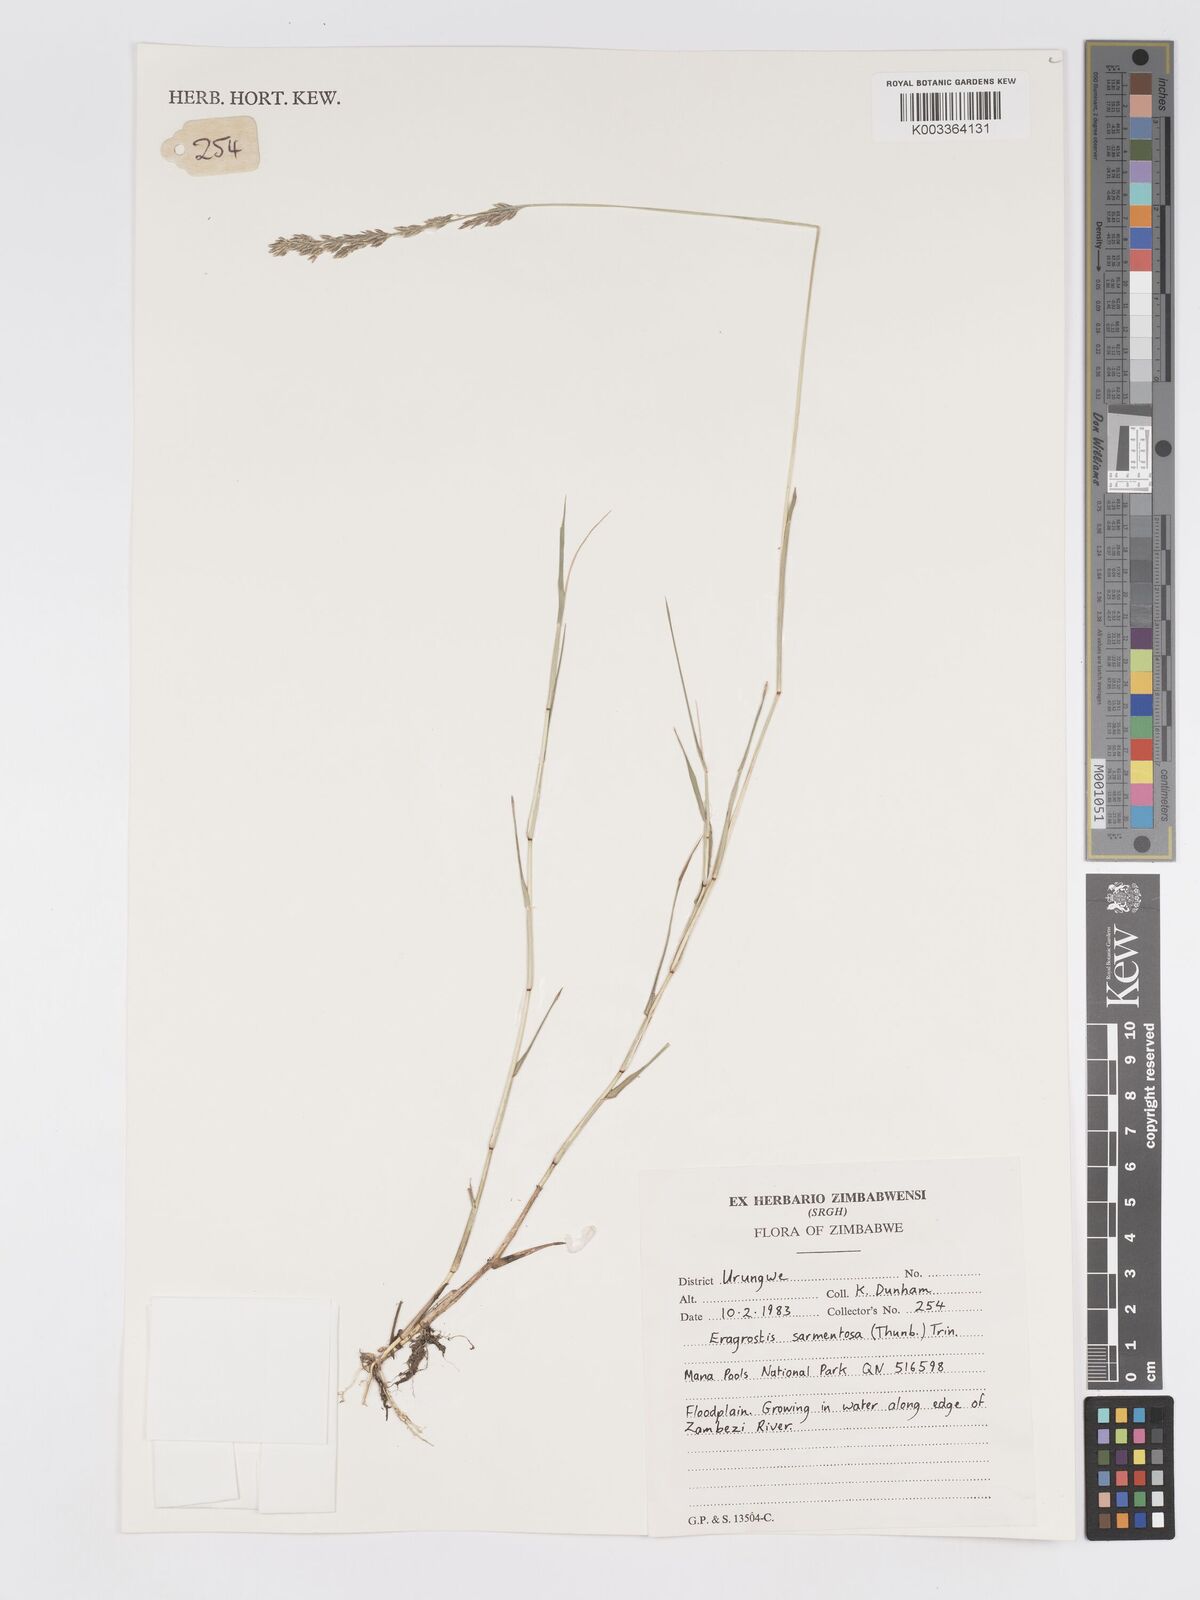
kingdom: Plantae
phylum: Tracheophyta
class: Liliopsida
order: Poales
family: Poaceae
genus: Eragrostis
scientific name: Eragrostis sarmentosa
